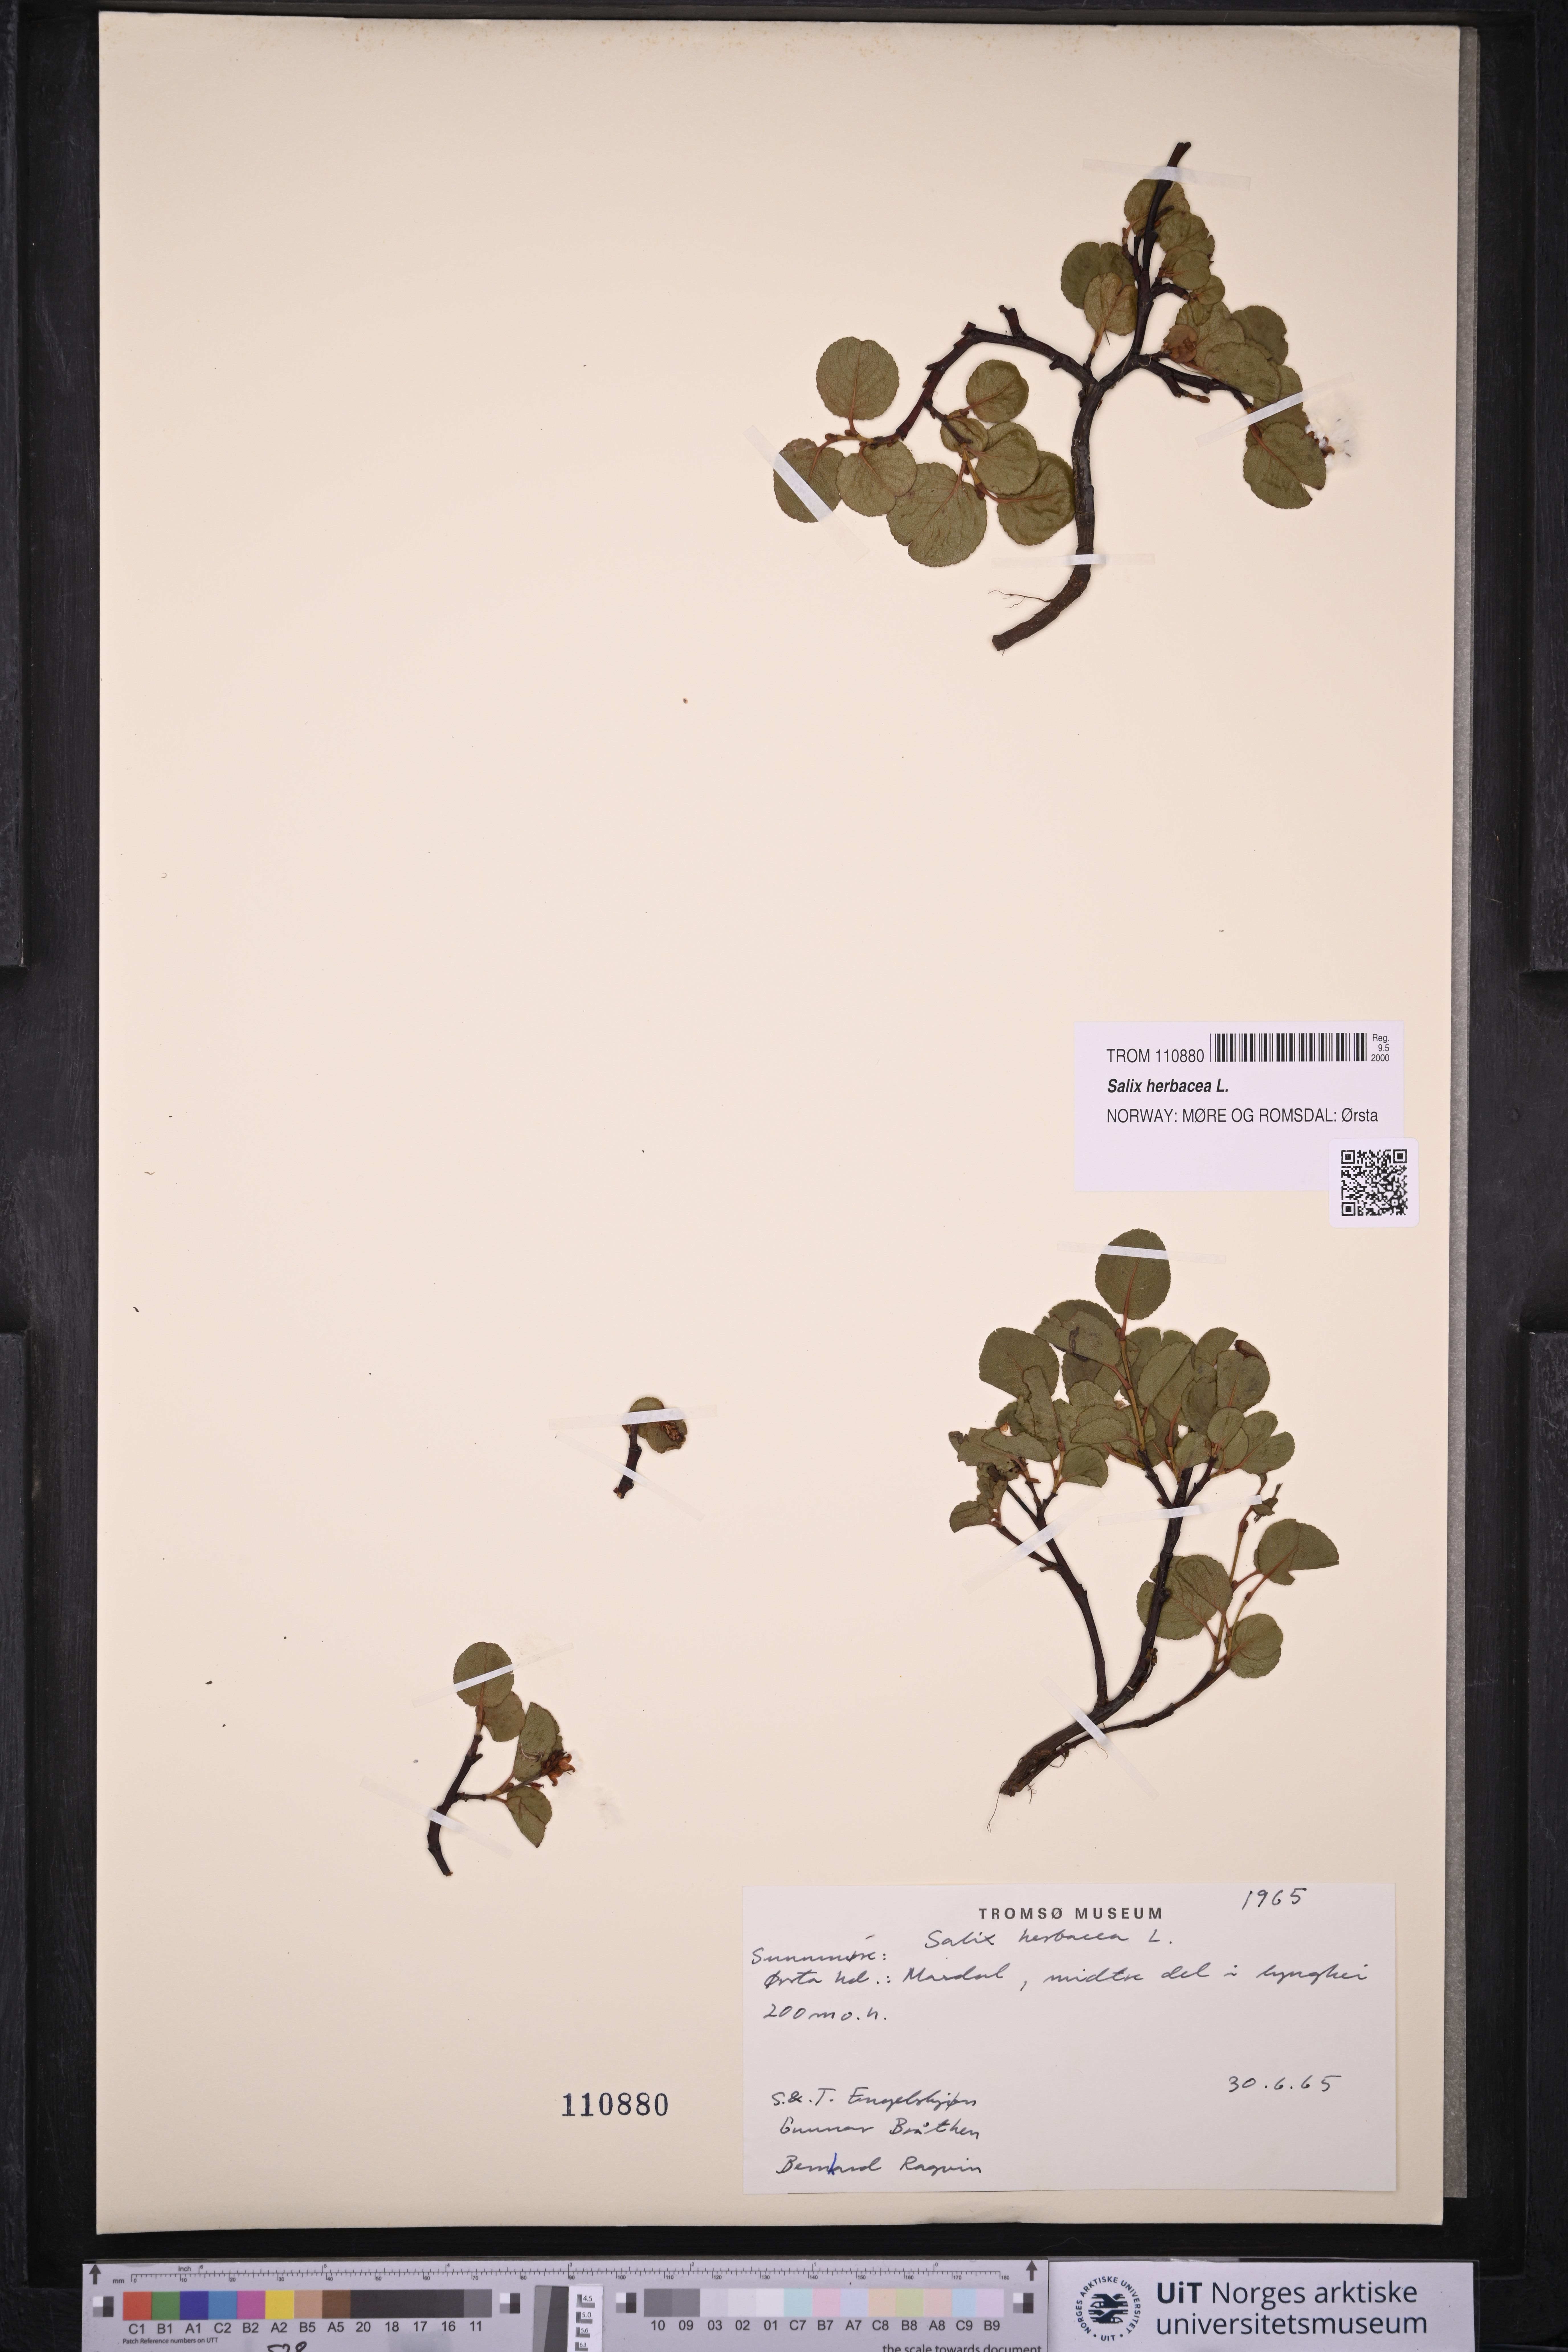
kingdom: Plantae
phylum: Tracheophyta
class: Magnoliopsida
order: Malpighiales
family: Salicaceae
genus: Salix
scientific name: Salix herbacea
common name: Dwarf willow
